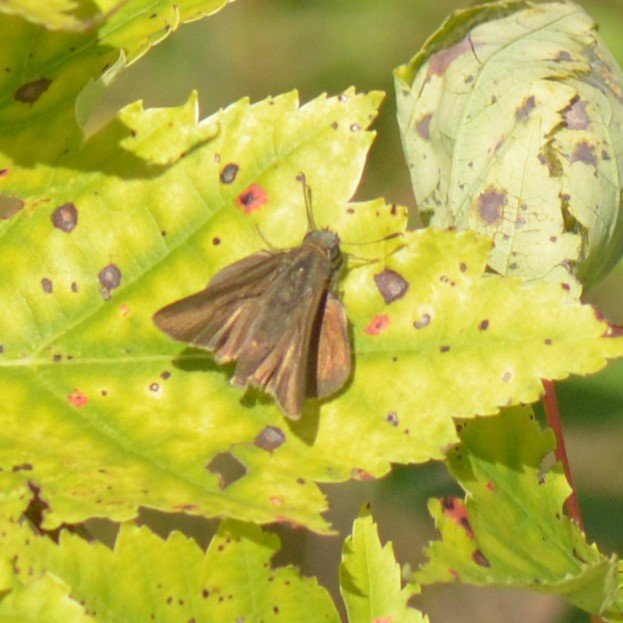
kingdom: Animalia
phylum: Arthropoda
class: Insecta
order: Lepidoptera
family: Hesperiidae
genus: Euphyes
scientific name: Euphyes vestris
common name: Dun Skipper
